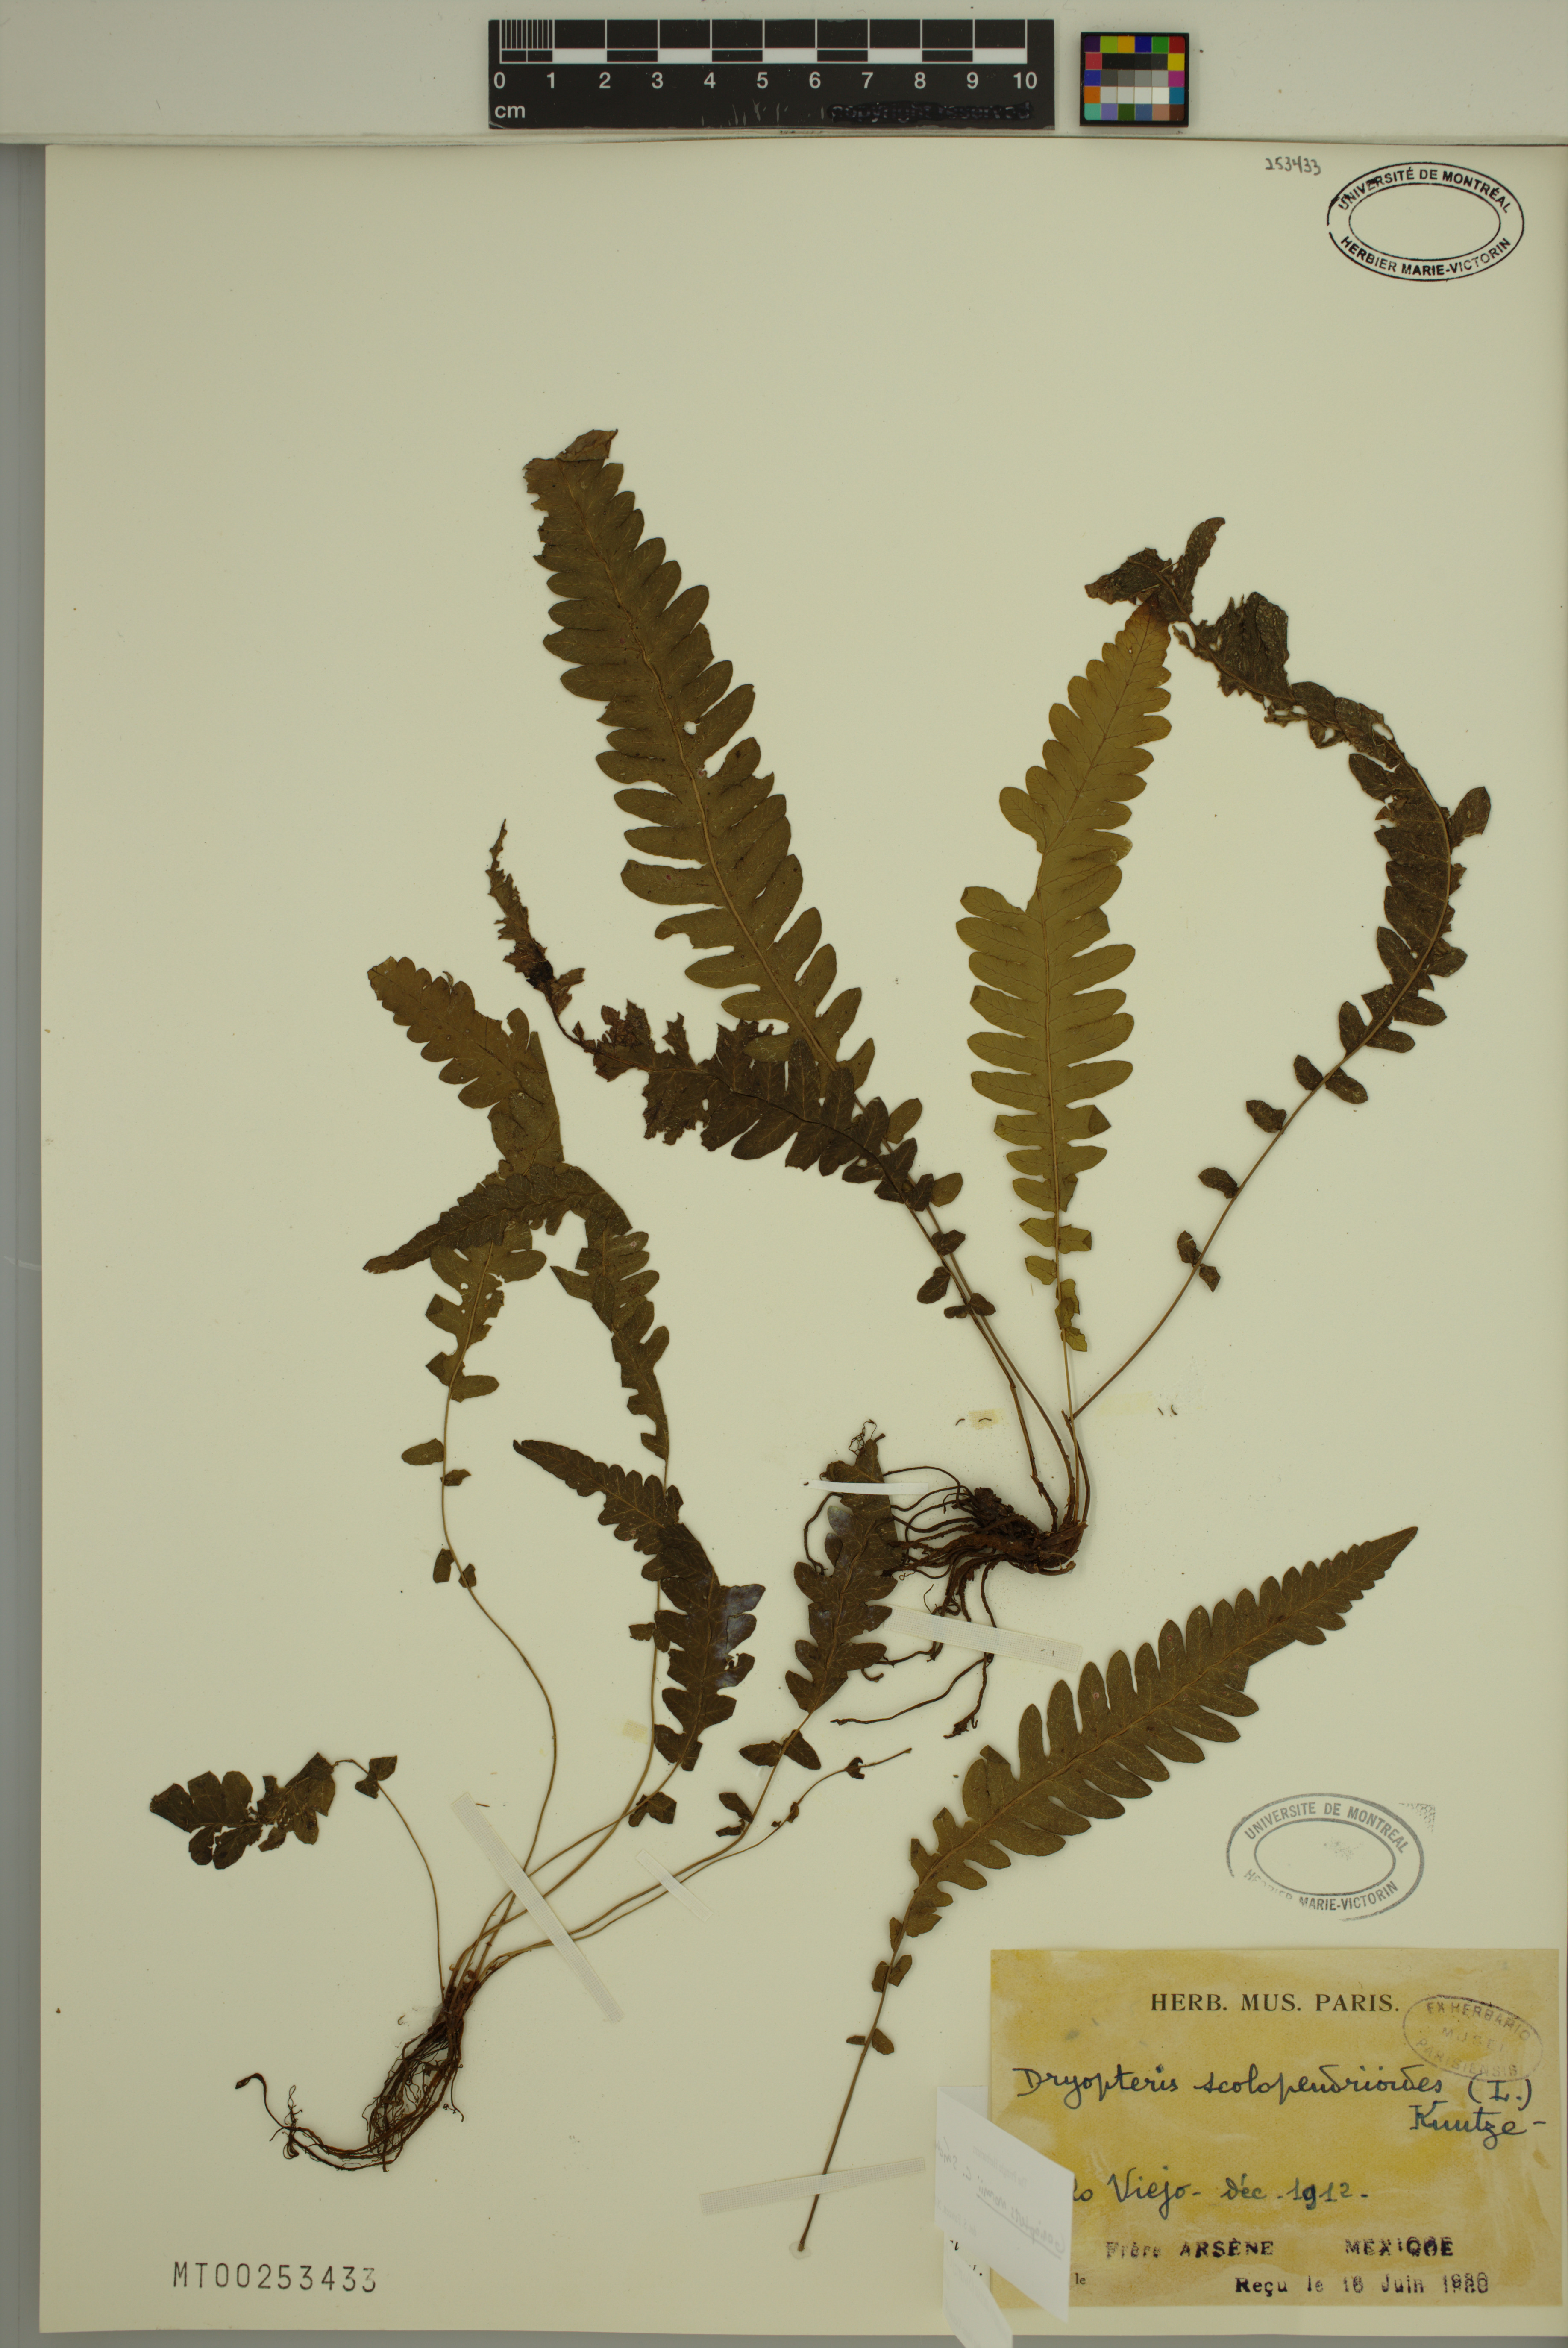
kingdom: Plantae
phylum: Tracheophyta
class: Polypodiopsida
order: Polypodiales
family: Thelypteridaceae
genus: Goniopteris
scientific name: Goniopteris domingensis
